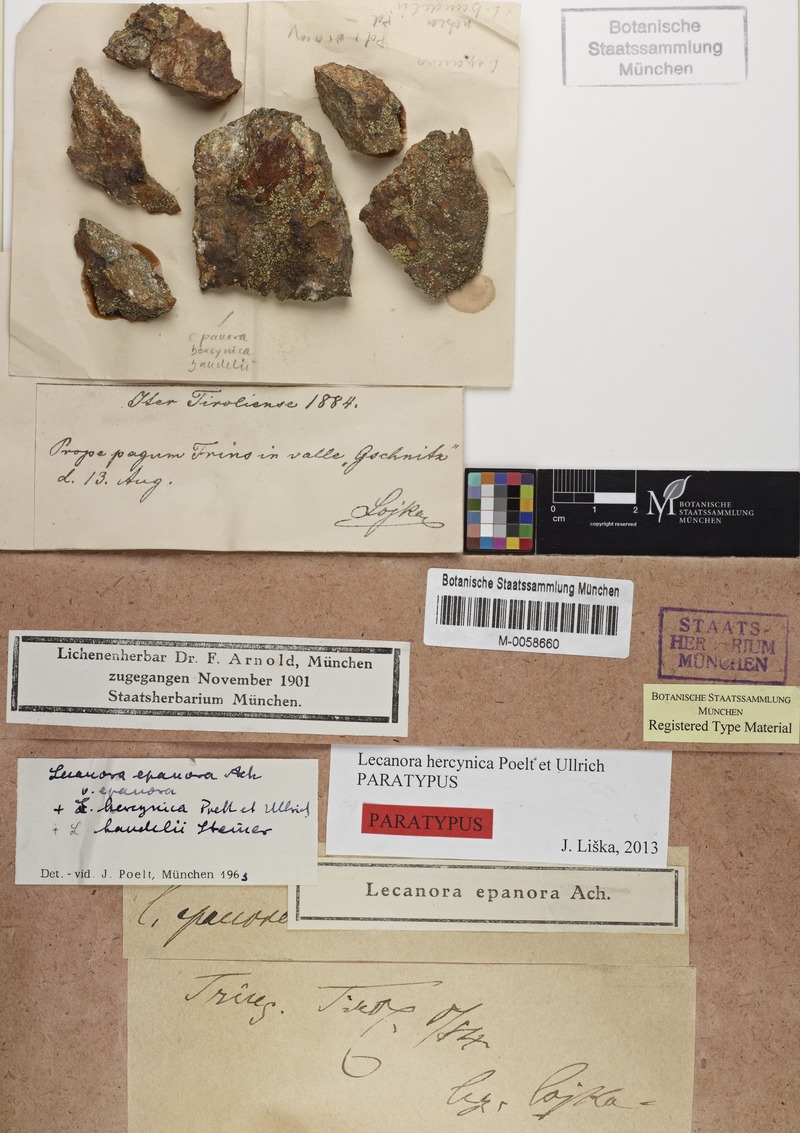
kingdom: Fungi
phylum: Ascomycota
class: Lecanoromycetes
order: Lecanorales
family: Lecanoraceae
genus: Lecanora
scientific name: Lecanora epanora
